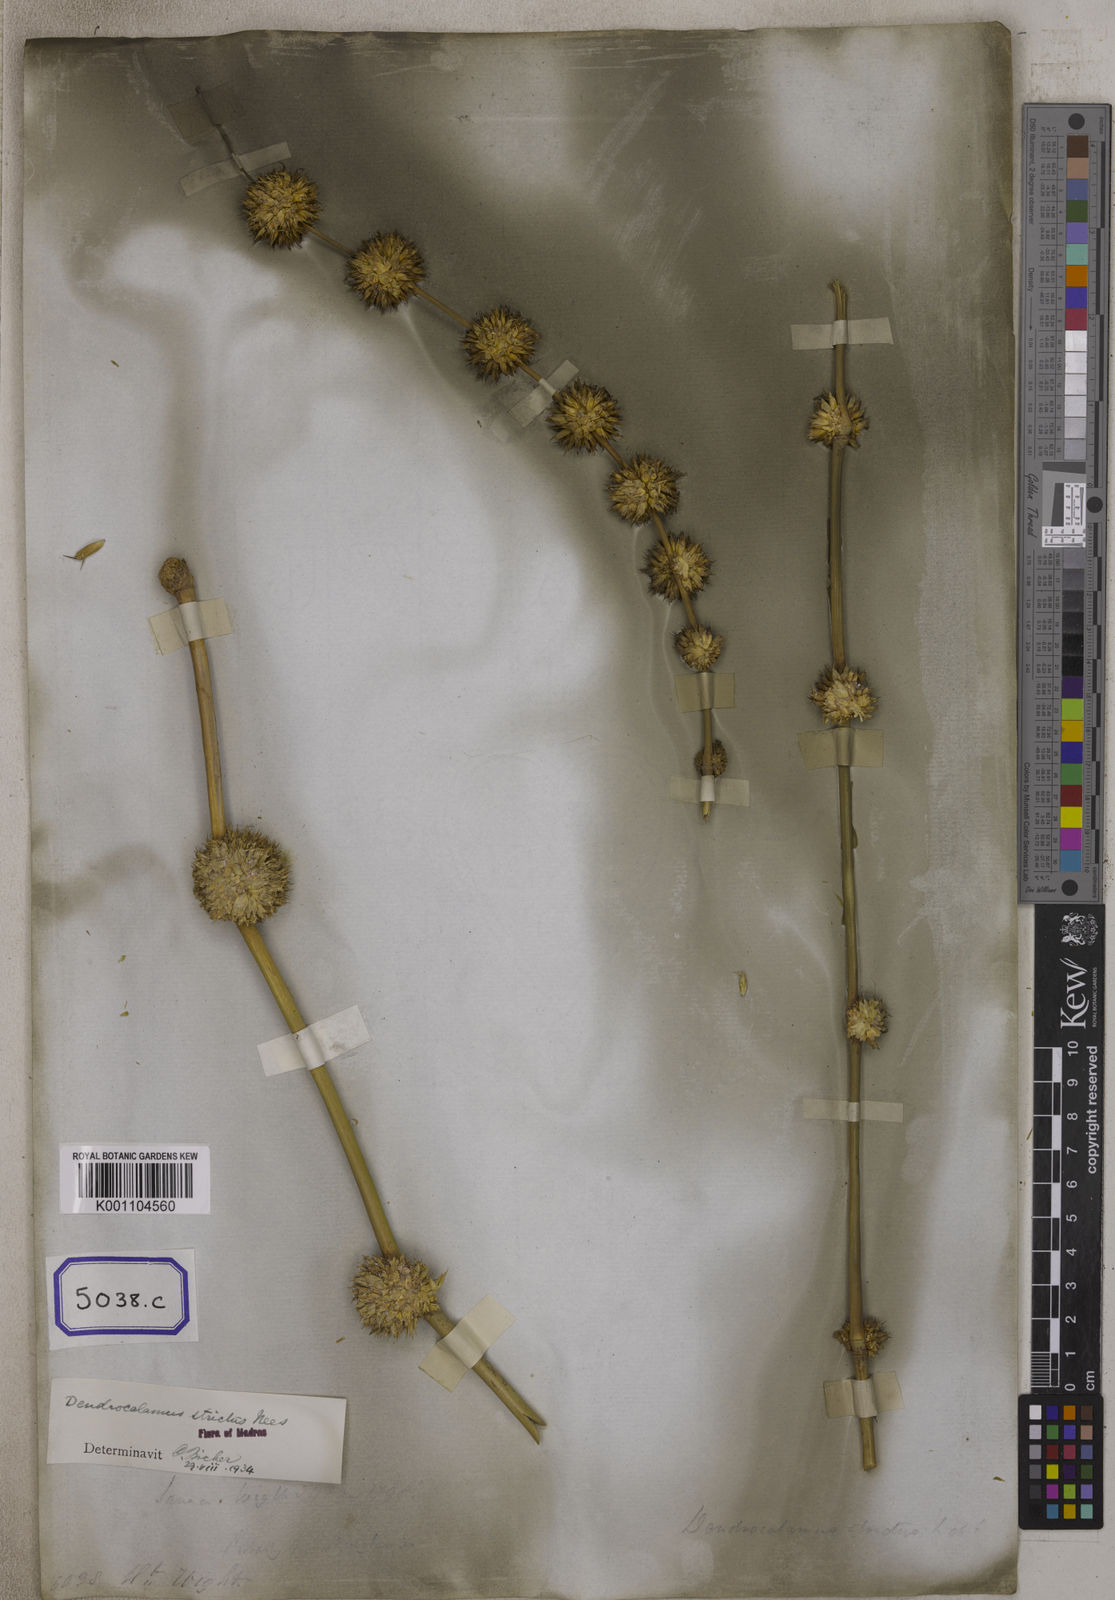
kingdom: Plantae
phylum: Tracheophyta
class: Liliopsida
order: Poales
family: Poaceae
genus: Bambusa
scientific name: Bambusa
